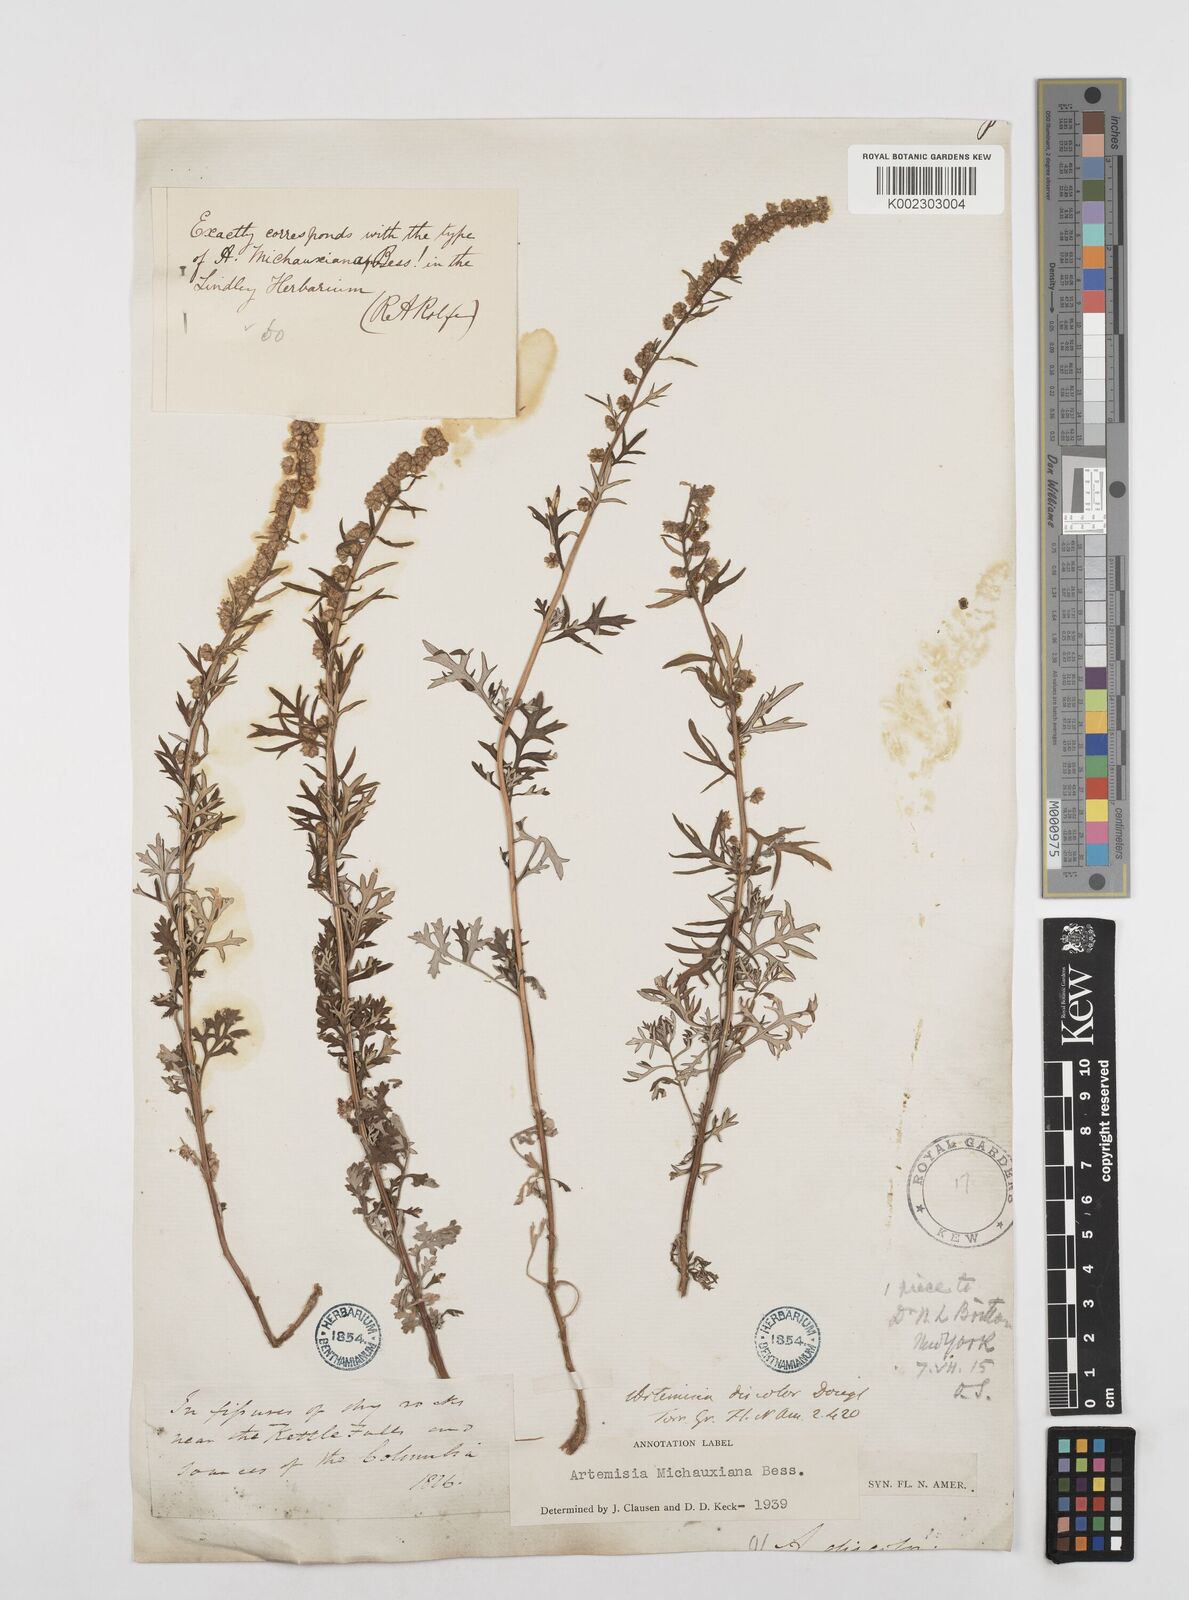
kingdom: Plantae
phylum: Tracheophyta
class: Magnoliopsida
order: Asterales
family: Asteraceae
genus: Artemisia
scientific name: Artemisia michauxiana
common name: Lemon sagewort
